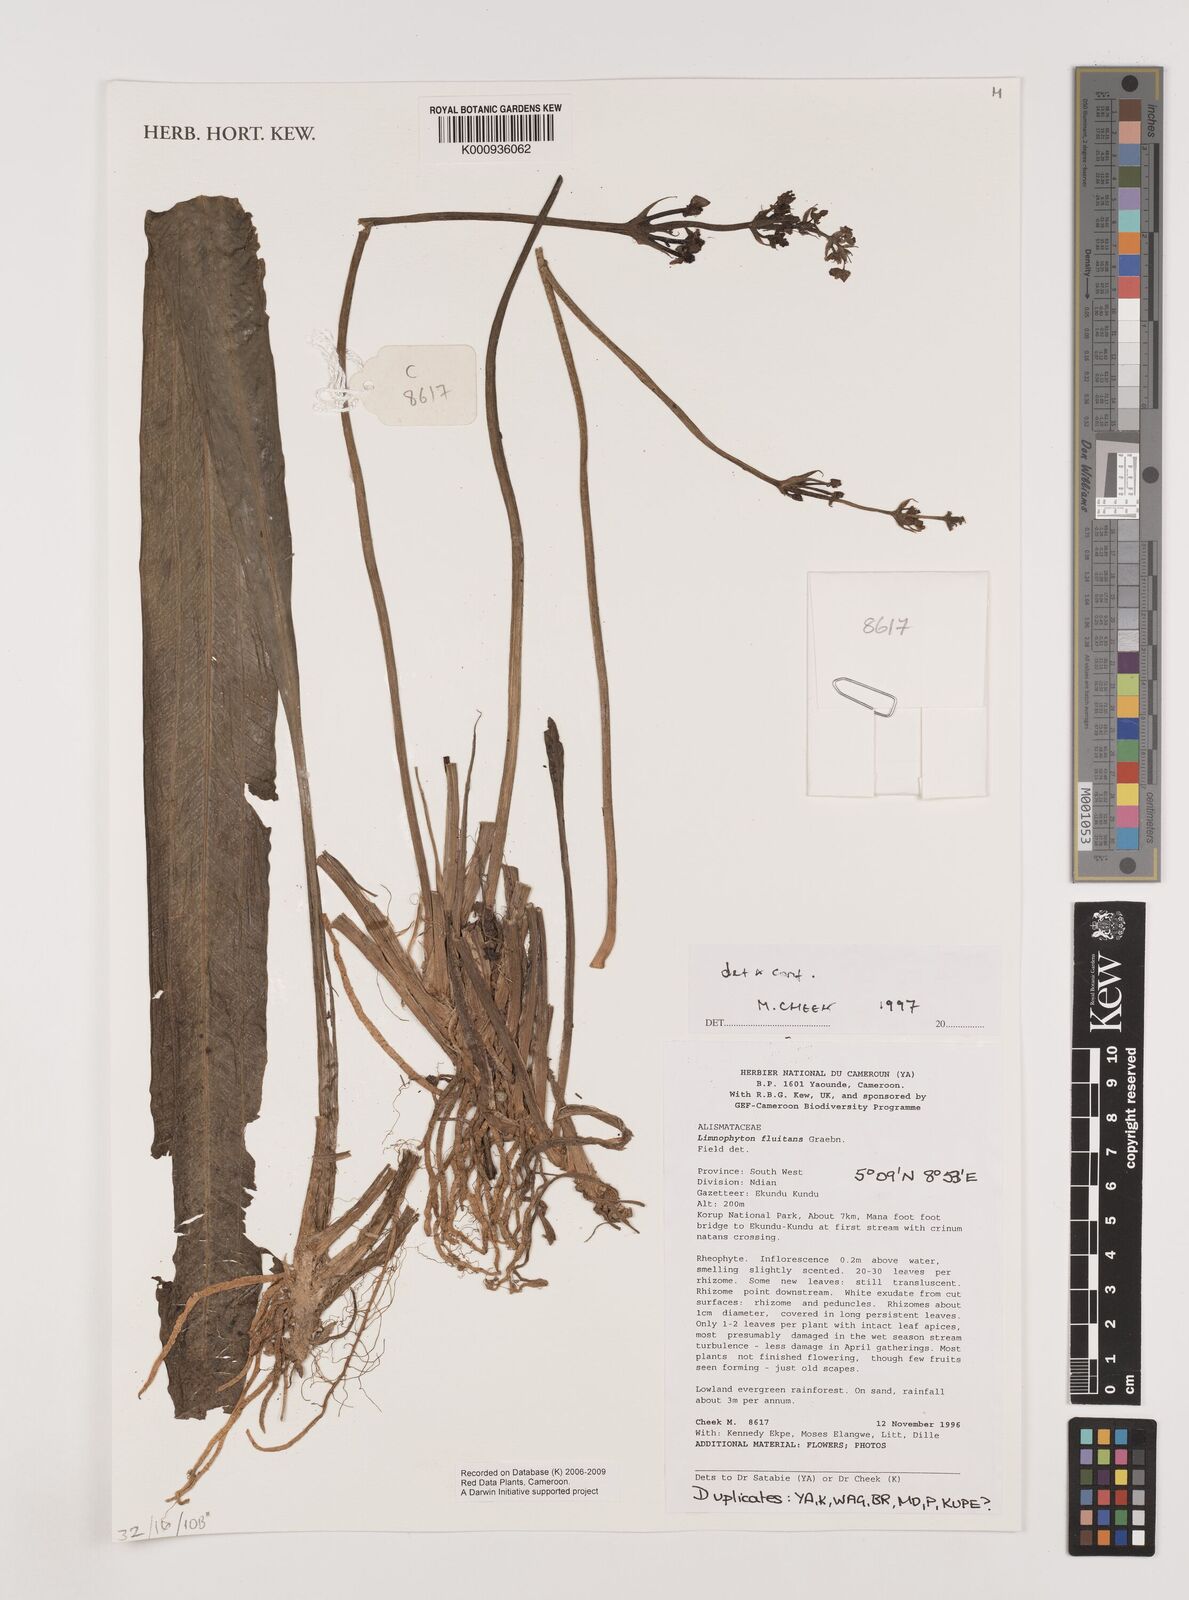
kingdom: Plantae
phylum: Tracheophyta
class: Liliopsida
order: Alismatales
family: Alismataceae
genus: Limnophyton
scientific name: Limnophyton fluitans
